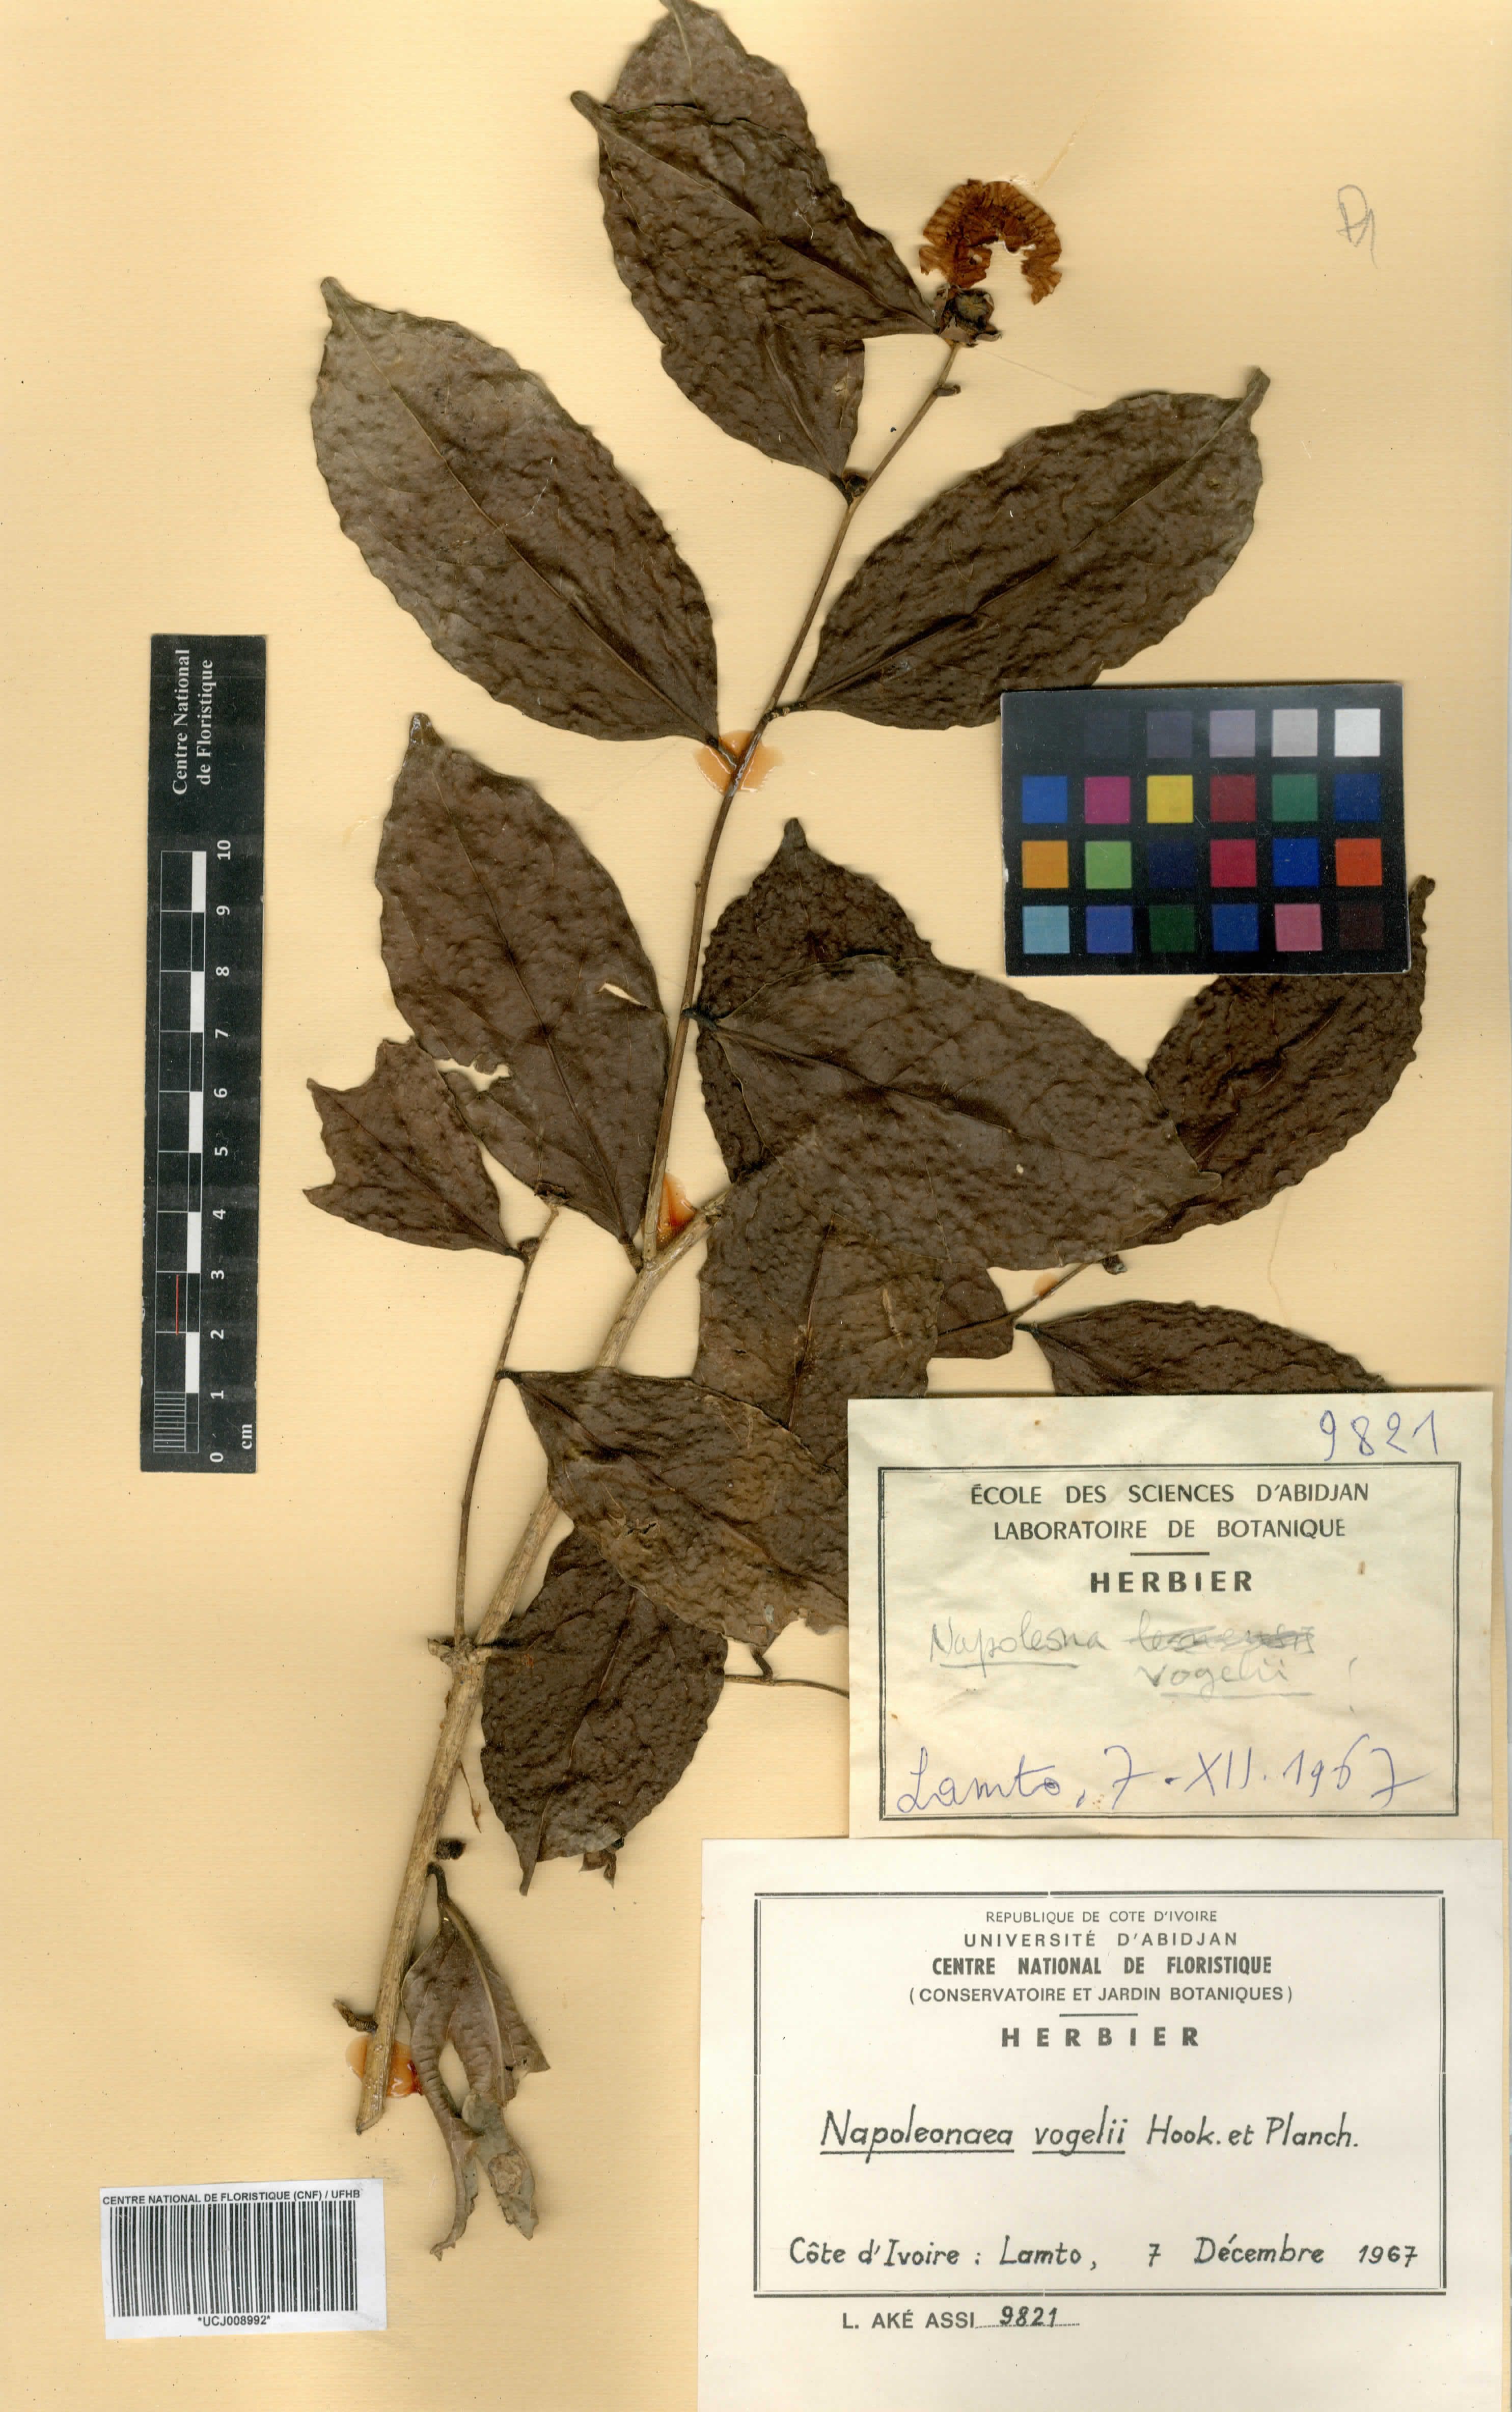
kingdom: Plantae
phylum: Tracheophyta
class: Magnoliopsida
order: Ericales
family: Lecythidaceae
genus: Napoleonaea
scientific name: Napoleonaea vogelii
